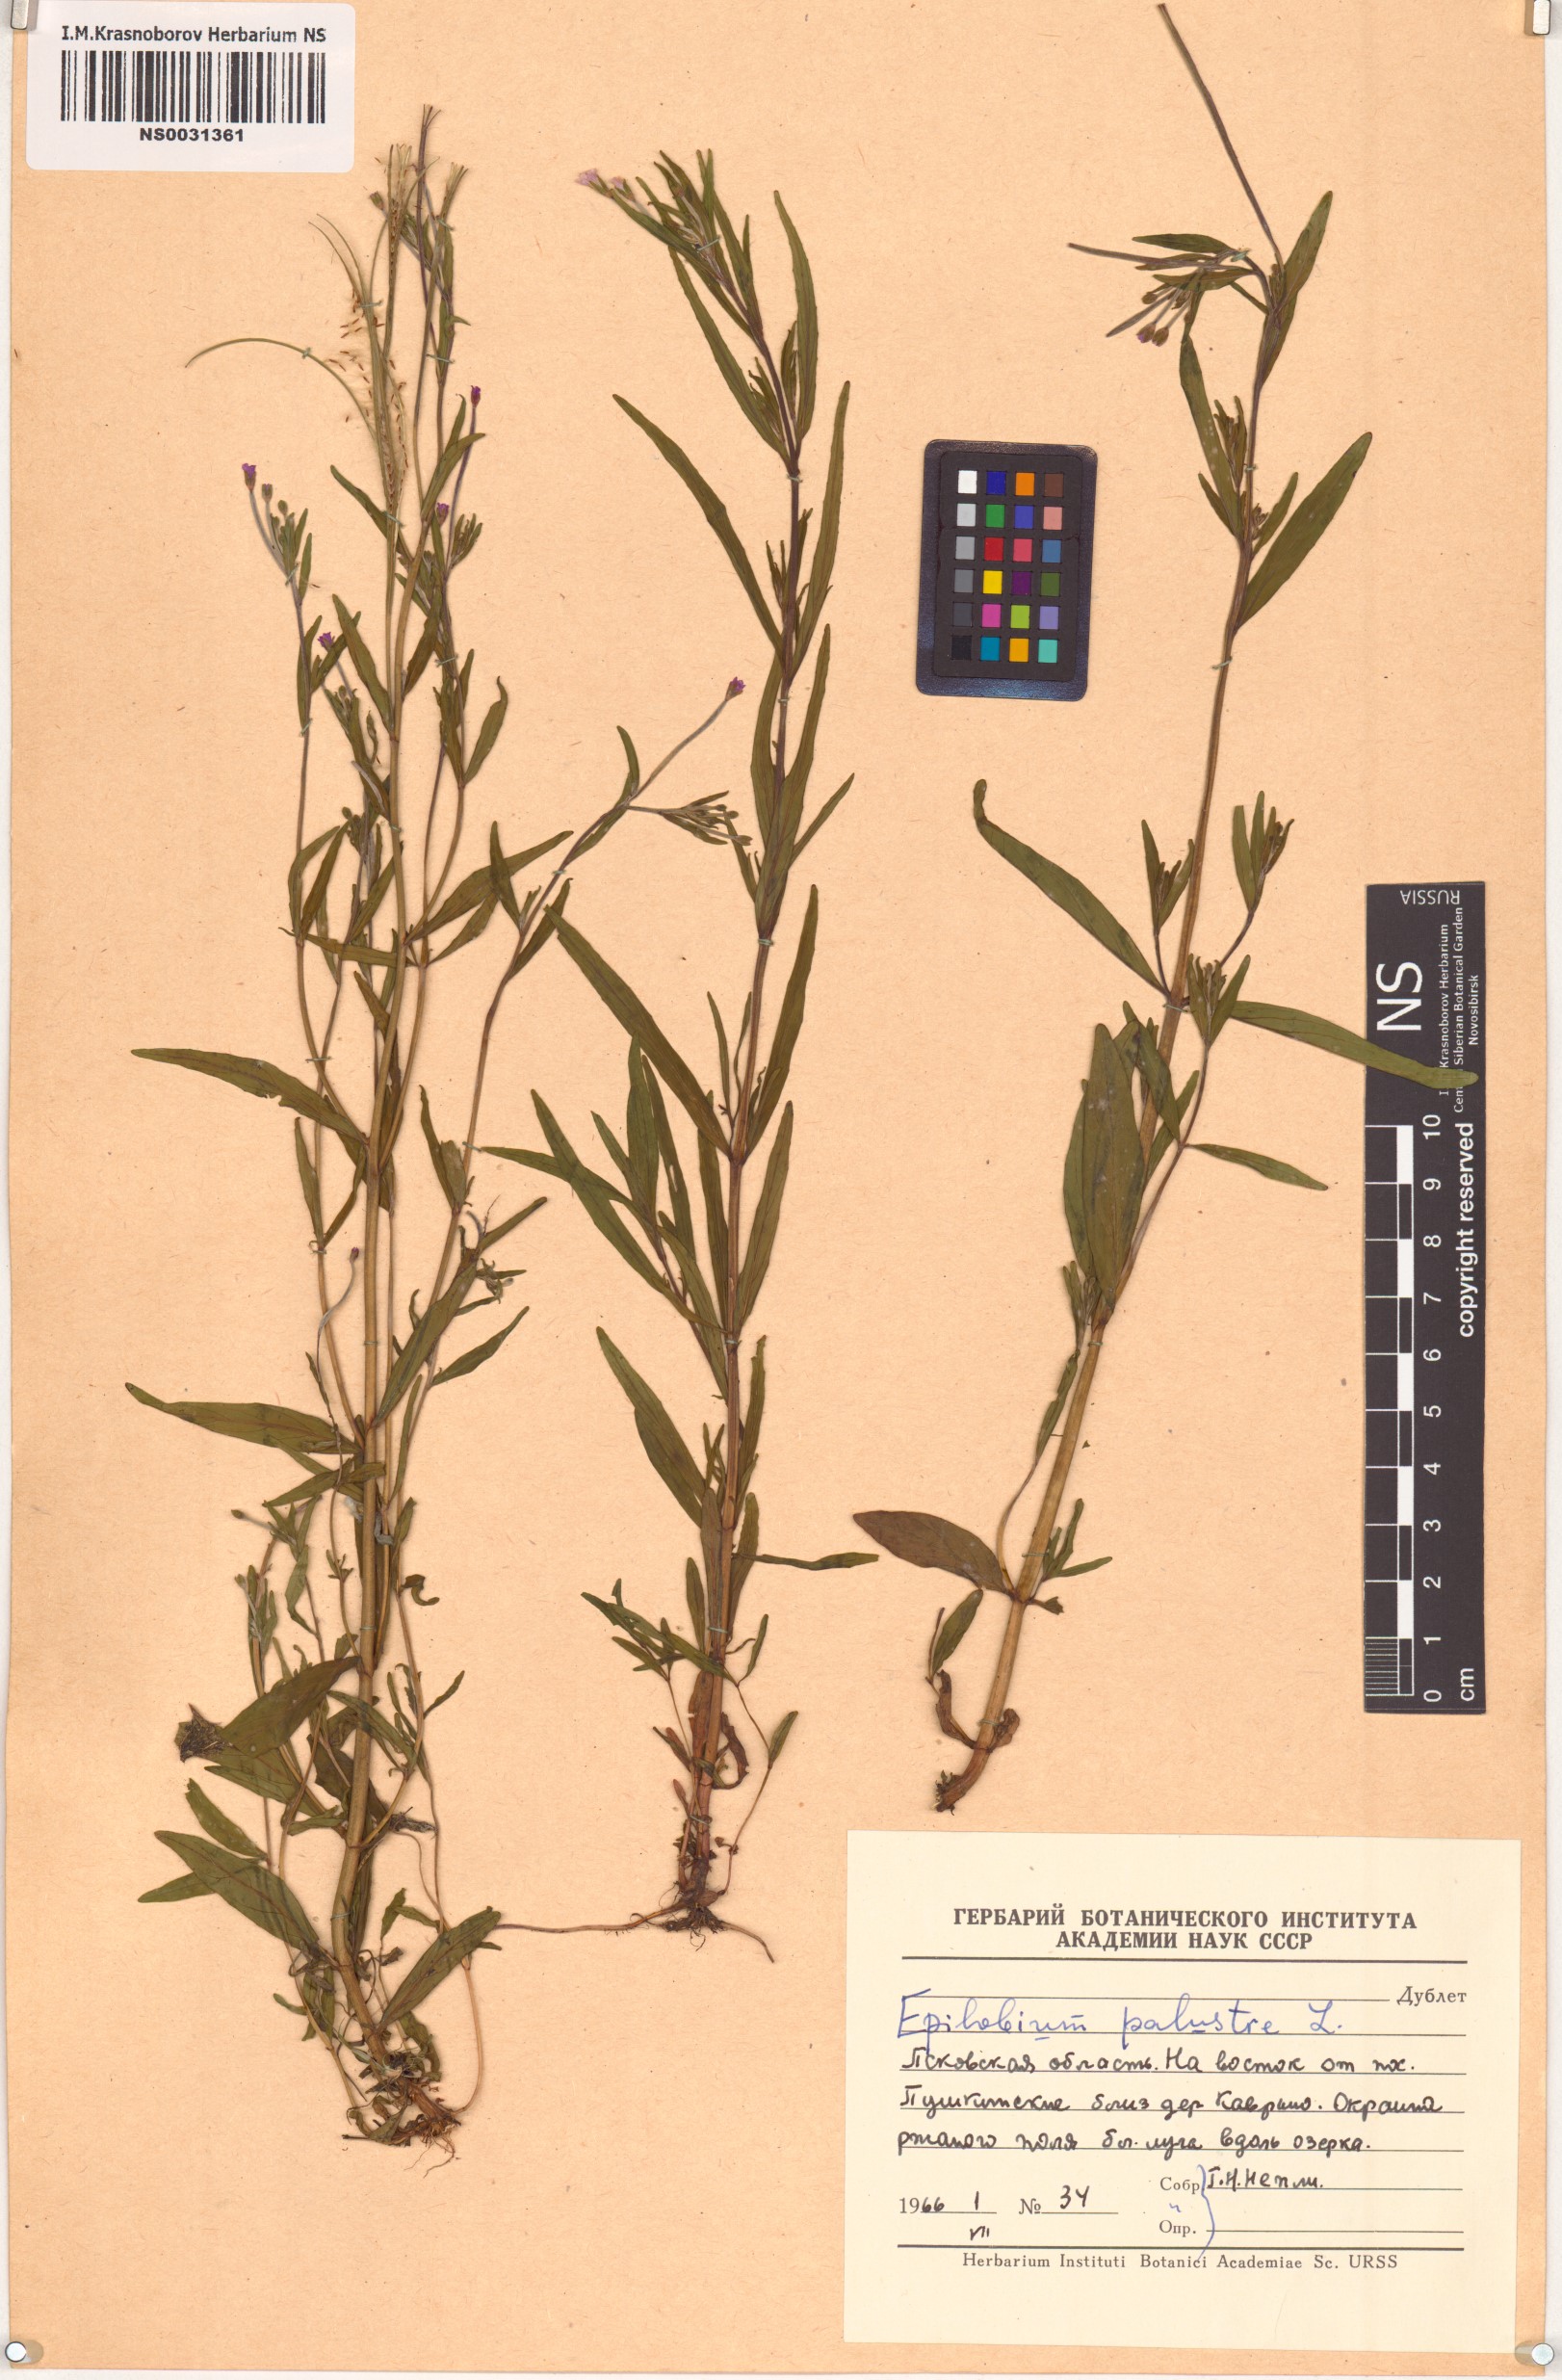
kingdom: Plantae
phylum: Tracheophyta
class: Magnoliopsida
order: Myrtales
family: Onagraceae
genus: Epilobium
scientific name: Epilobium palustre
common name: Marsh willowherb
